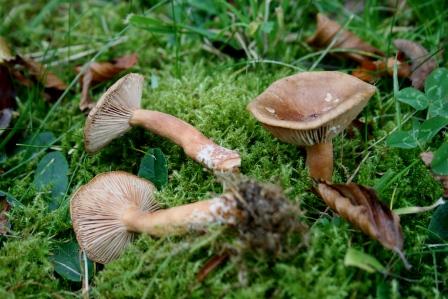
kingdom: Fungi
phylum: Basidiomycota
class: Agaricomycetes
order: Russulales
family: Russulaceae
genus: Lactarius
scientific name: Lactarius subdulcis
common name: sødlig mælkehat
